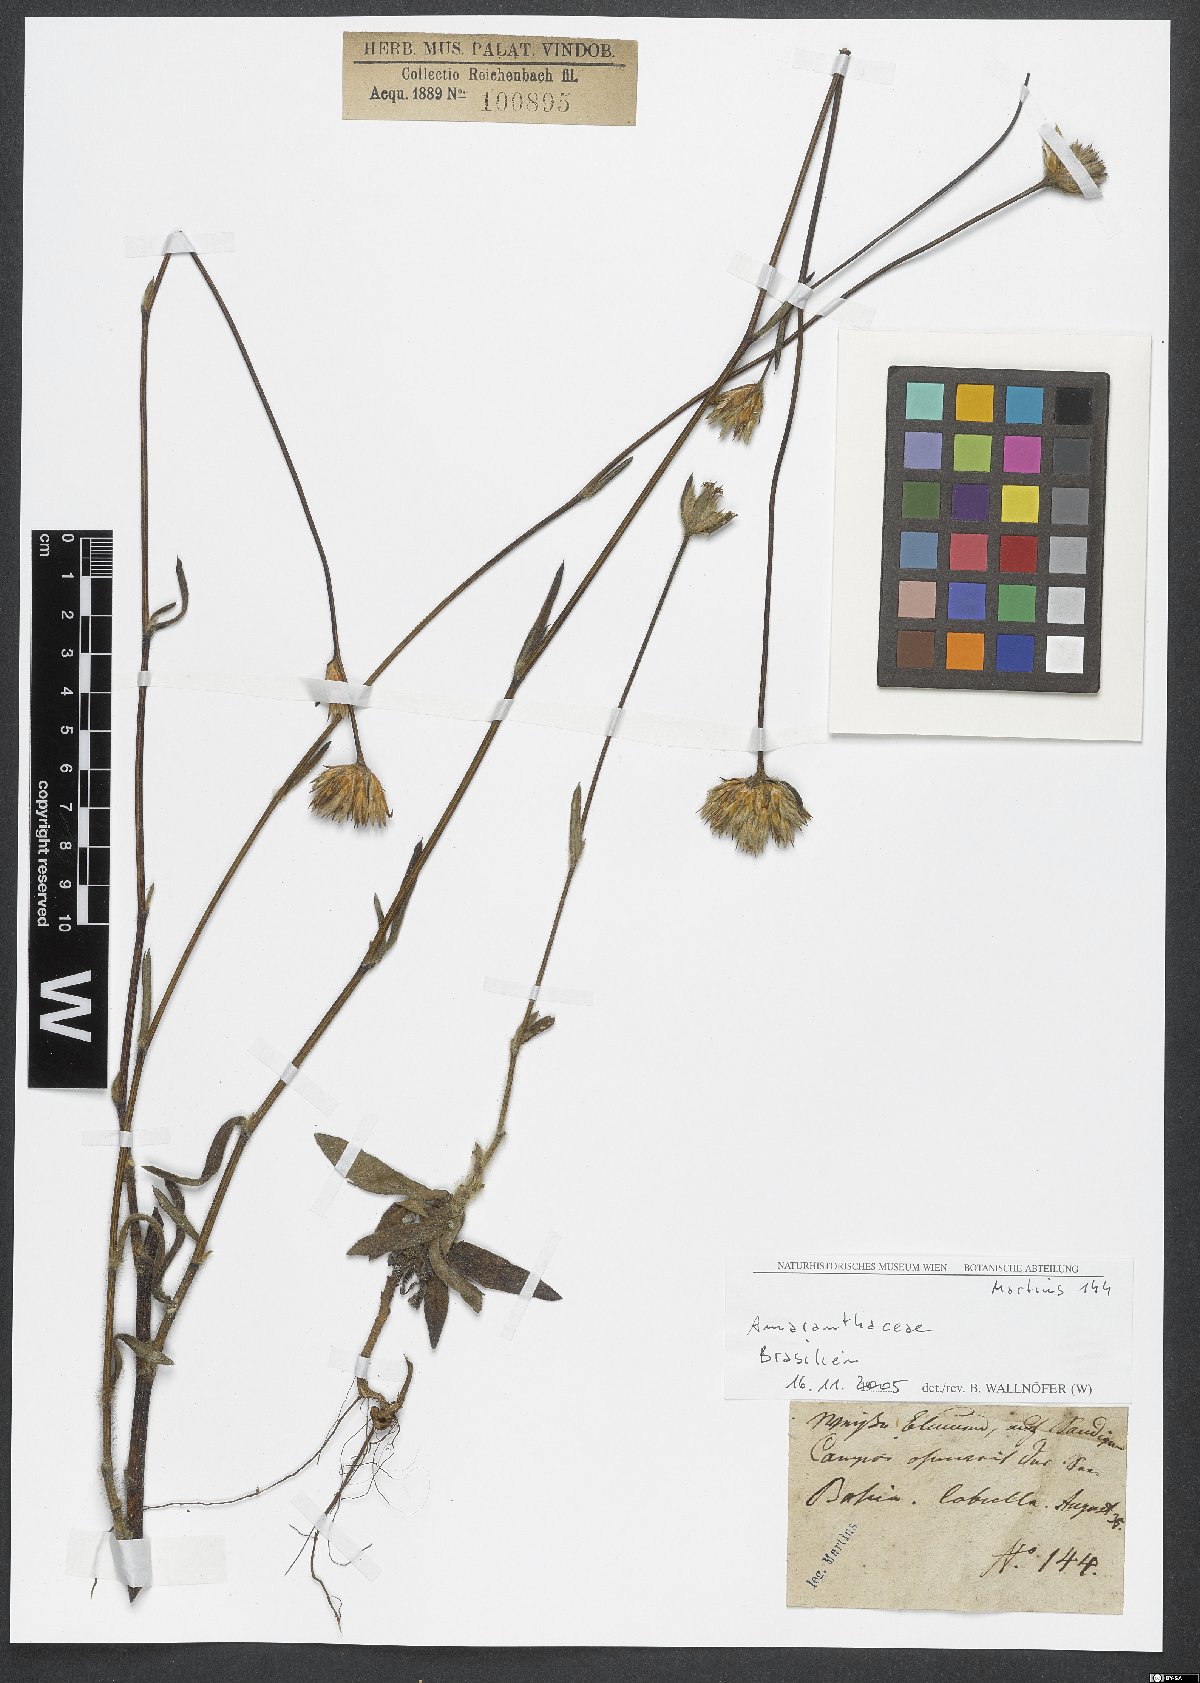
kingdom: Plantae
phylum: Tracheophyta
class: Magnoliopsida
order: Caryophyllales
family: Amaranthaceae
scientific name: Amaranthaceae
